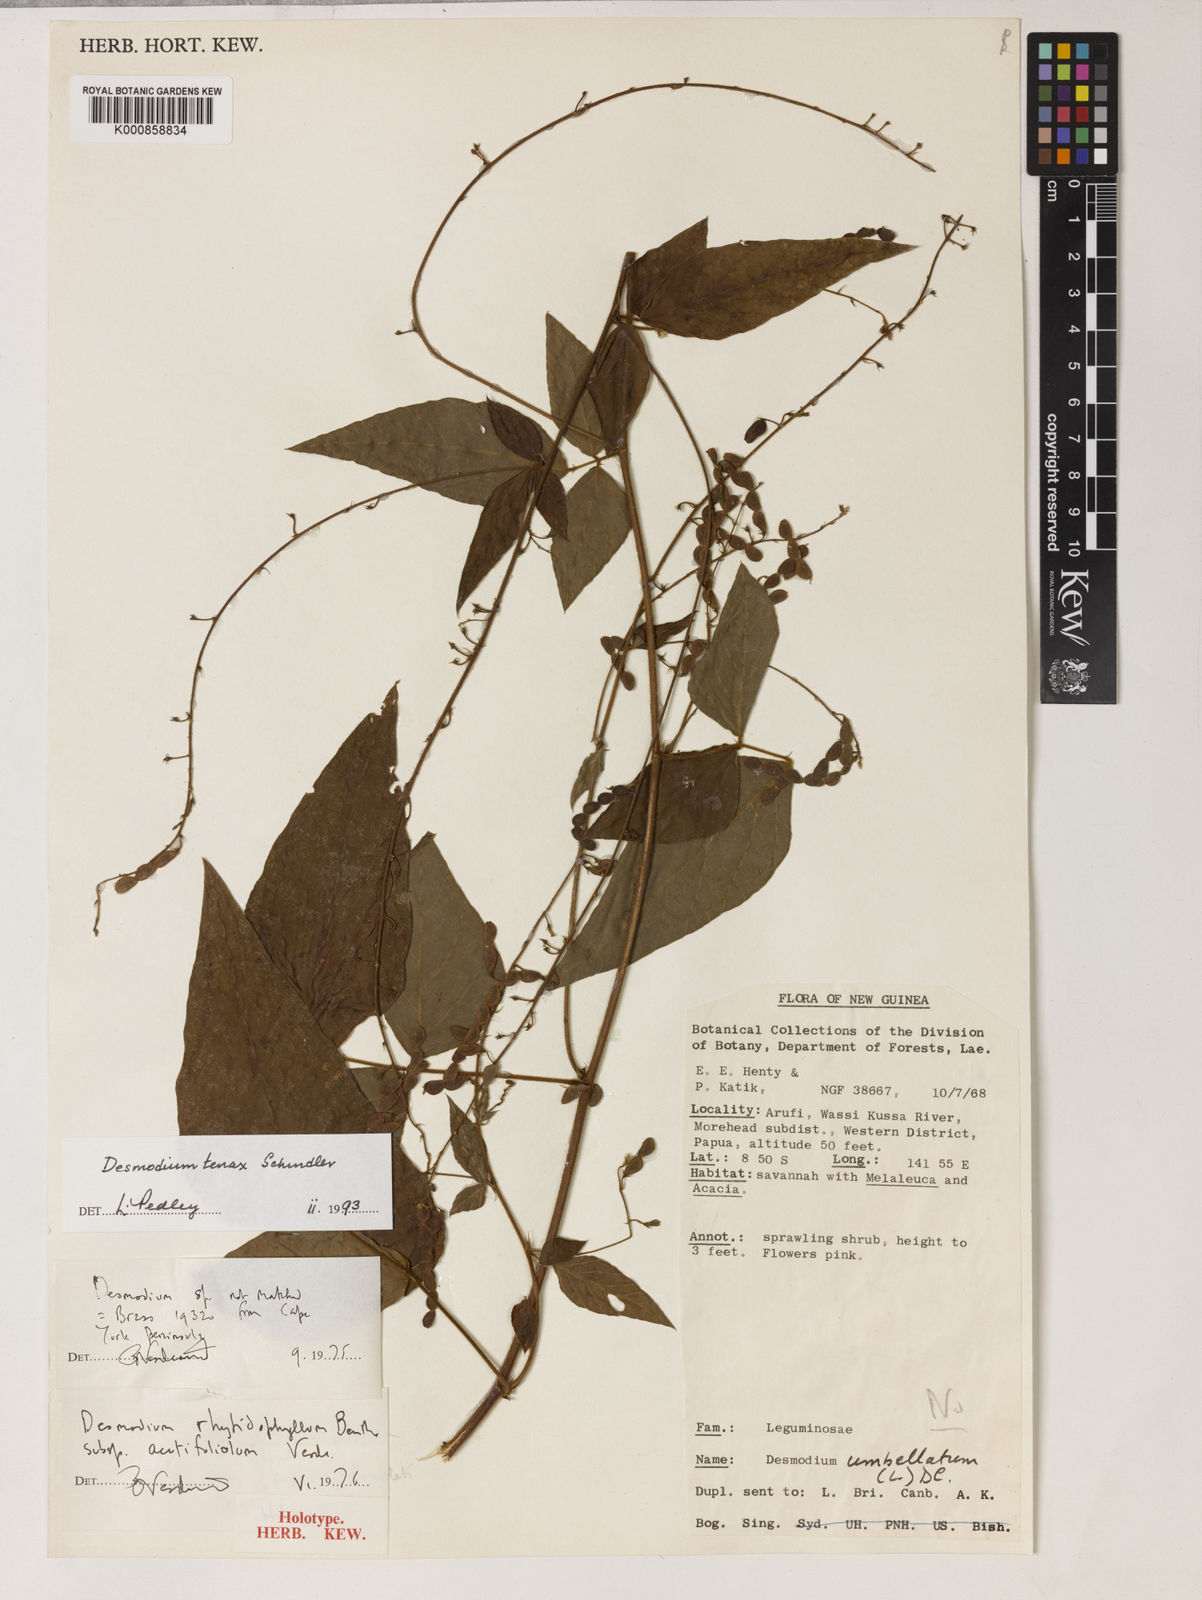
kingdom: Plantae
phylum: Tracheophyta
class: Magnoliopsida
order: Fabales
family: Fabaceae
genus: Maekawaea
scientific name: Maekawaea tenax
